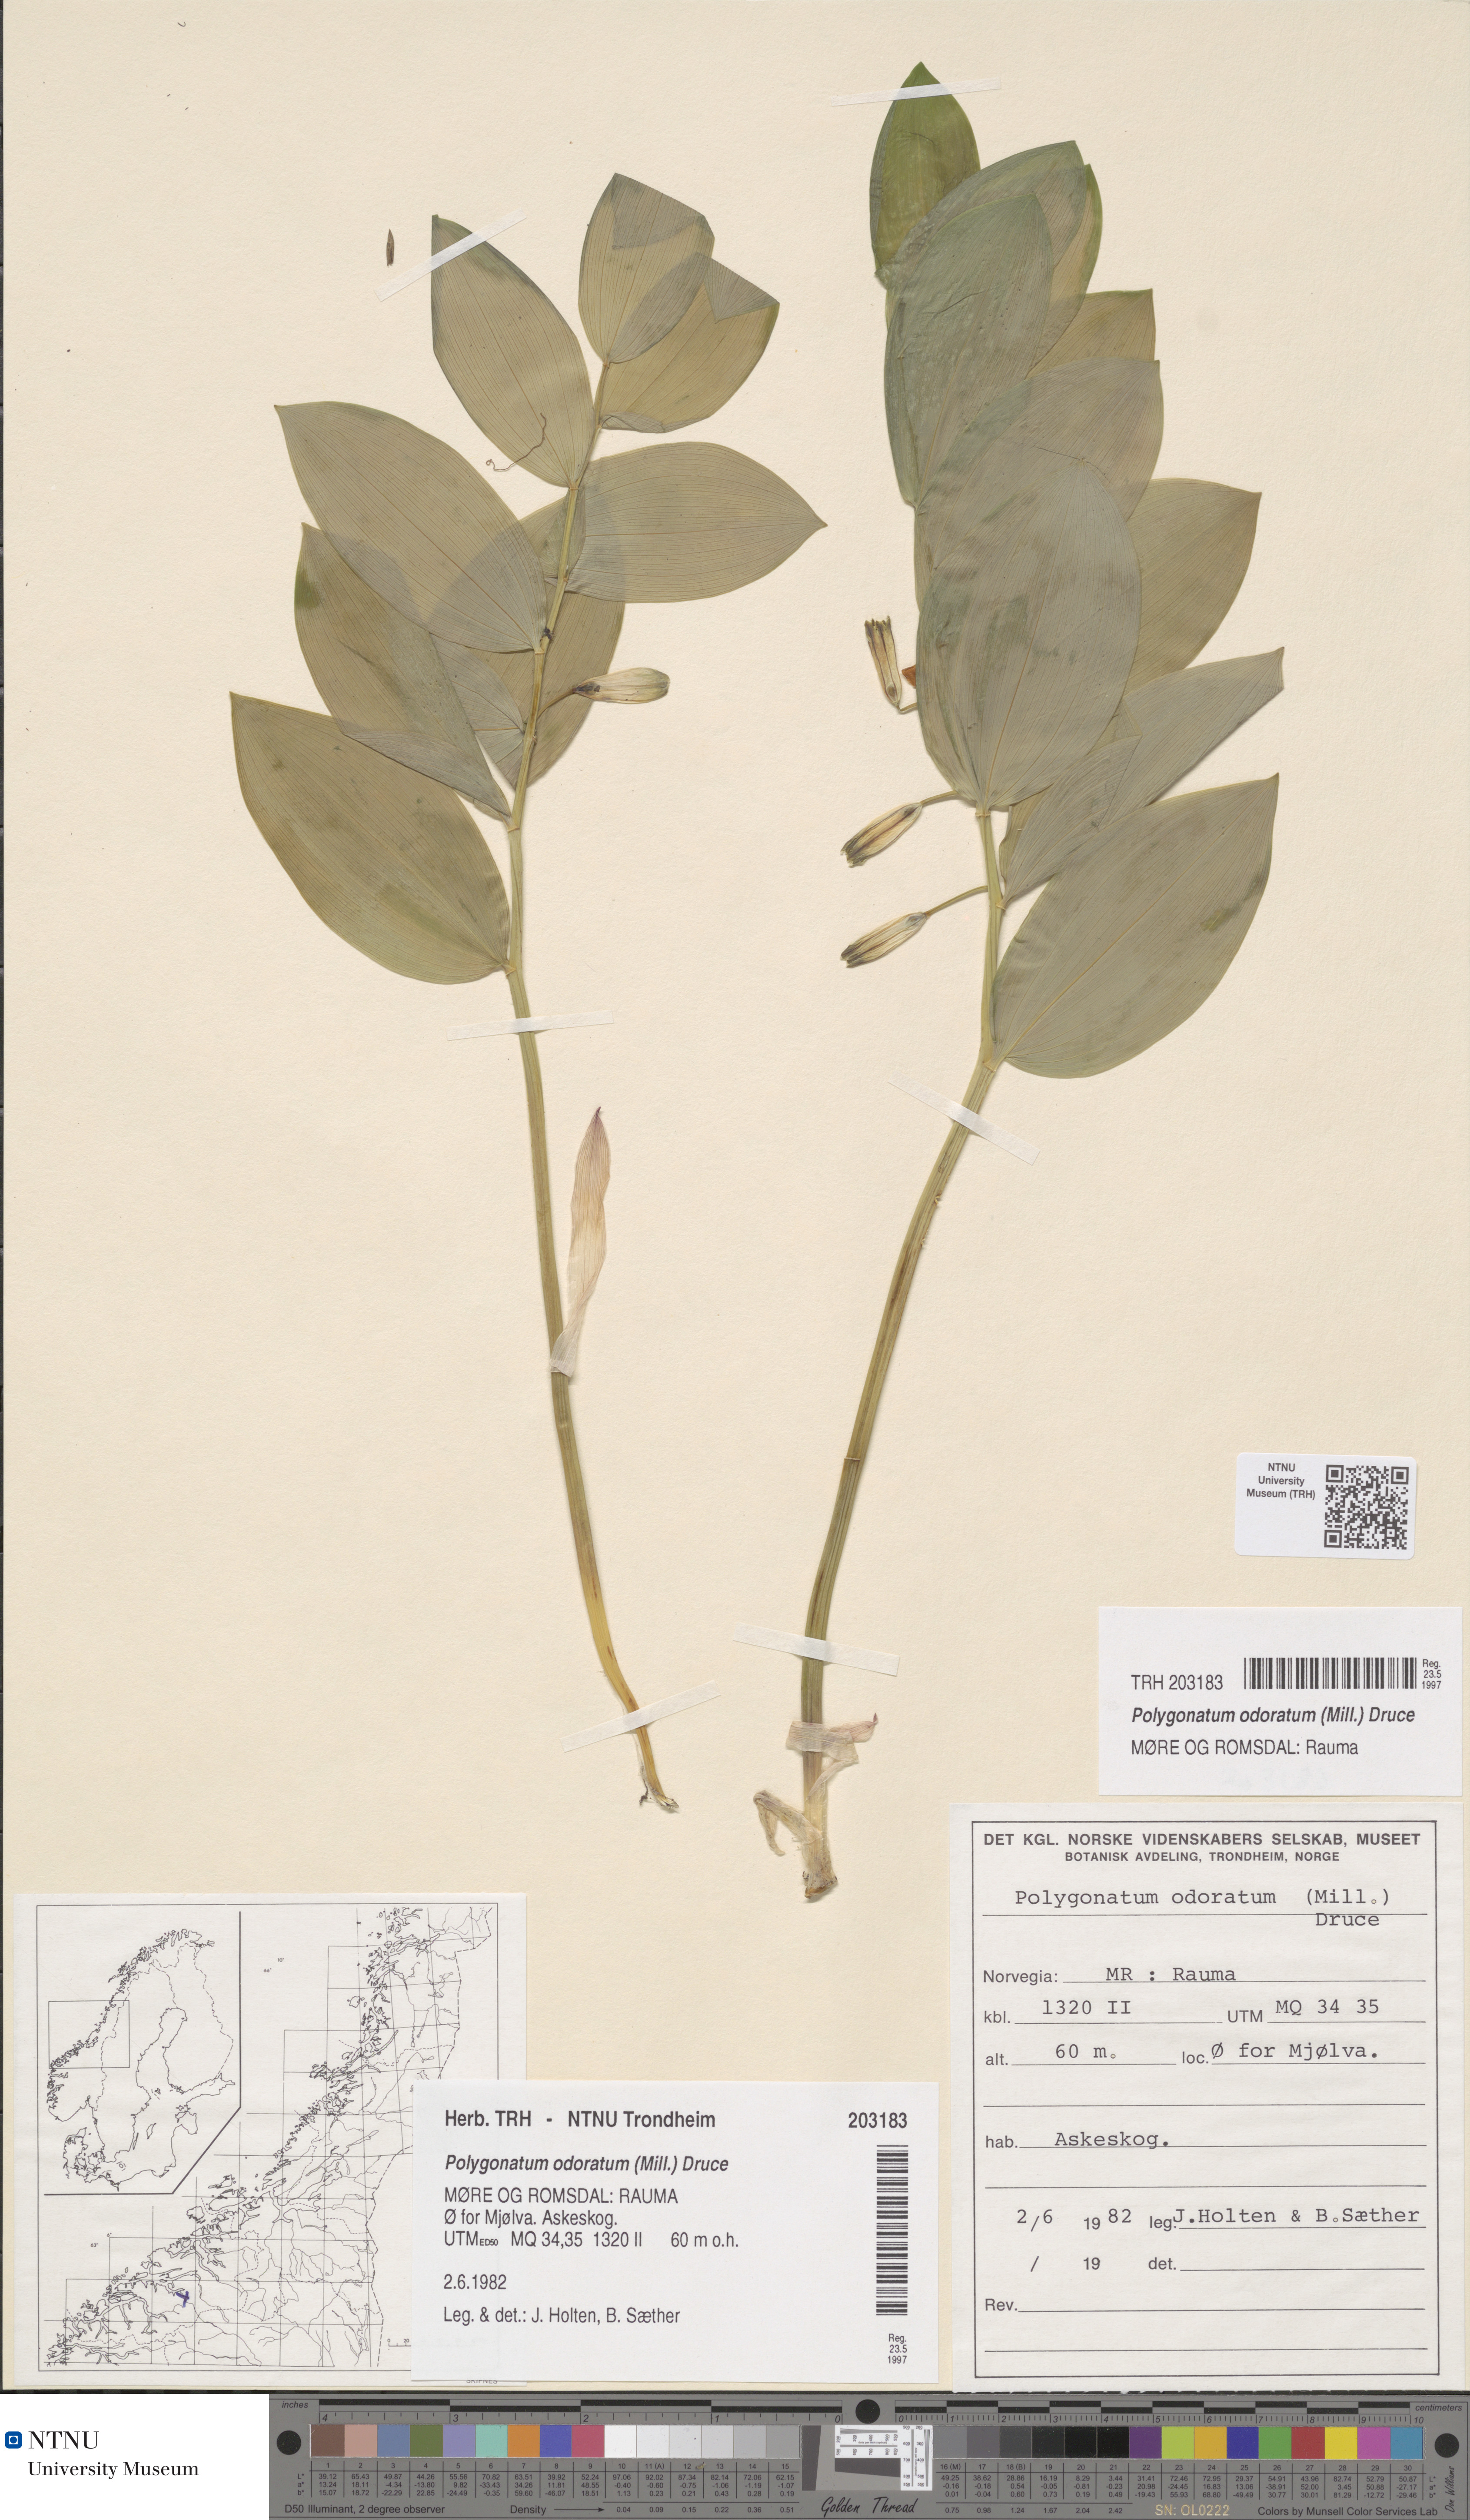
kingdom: Plantae
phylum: Tracheophyta
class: Liliopsida
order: Asparagales
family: Asparagaceae
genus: Polygonatum
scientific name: Polygonatum odoratum
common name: Angular solomon's-seal
